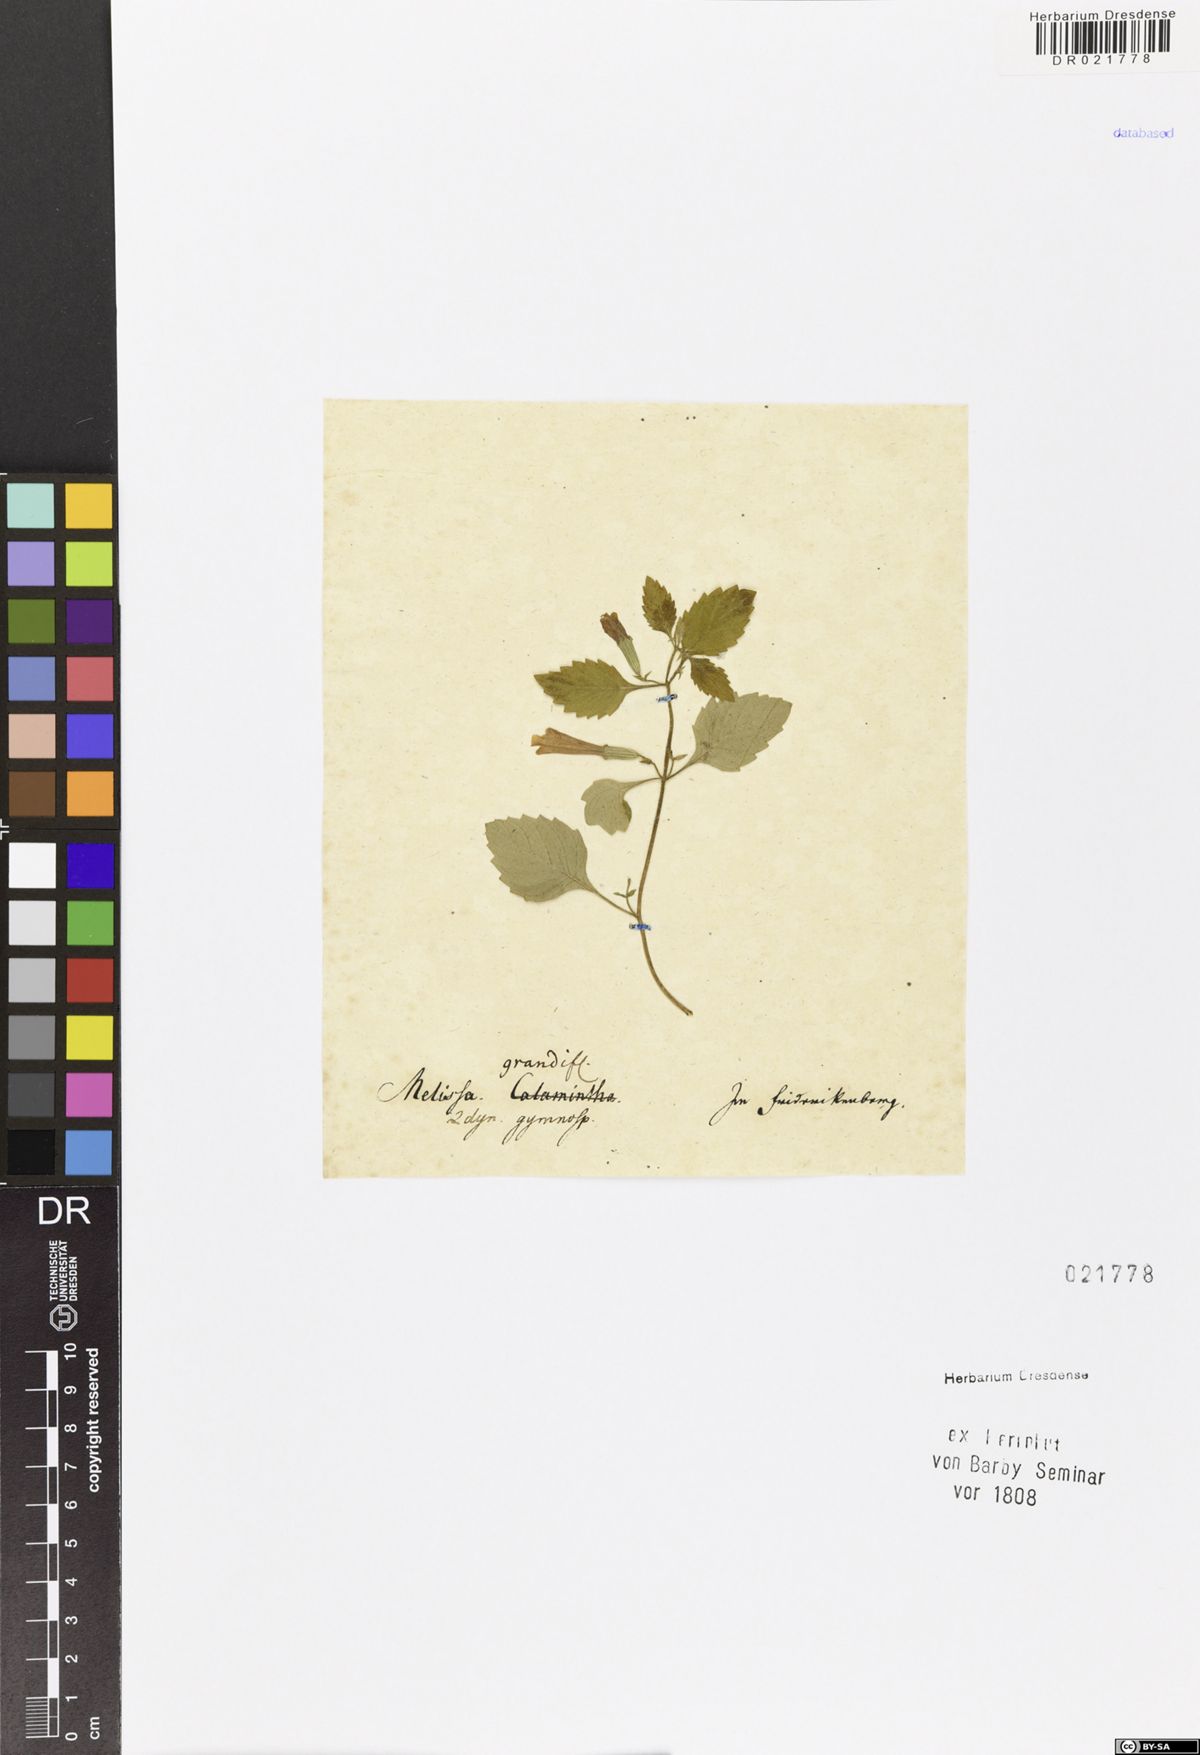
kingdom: Plantae
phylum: Tracheophyta
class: Magnoliopsida
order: Lamiales
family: Lamiaceae
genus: Clinopodium
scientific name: Clinopodium grandiflorum
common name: Greater calamint
